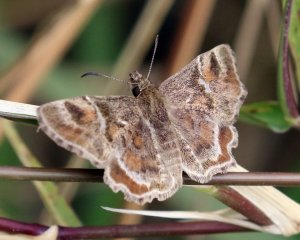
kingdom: Animalia
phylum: Arthropoda
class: Insecta
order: Lepidoptera
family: Hesperiidae
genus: Systasea
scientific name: Systasea pulverulenta
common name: Texas Powdered-Skipper
